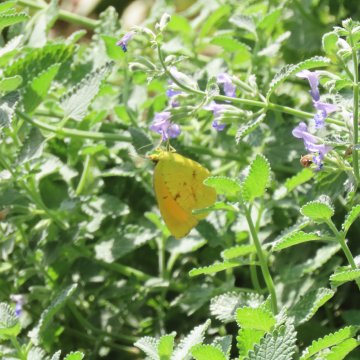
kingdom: Animalia
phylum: Arthropoda
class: Insecta
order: Lepidoptera
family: Pieridae
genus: Abaeis
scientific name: Abaeis nicippe
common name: Sleepy Orange
